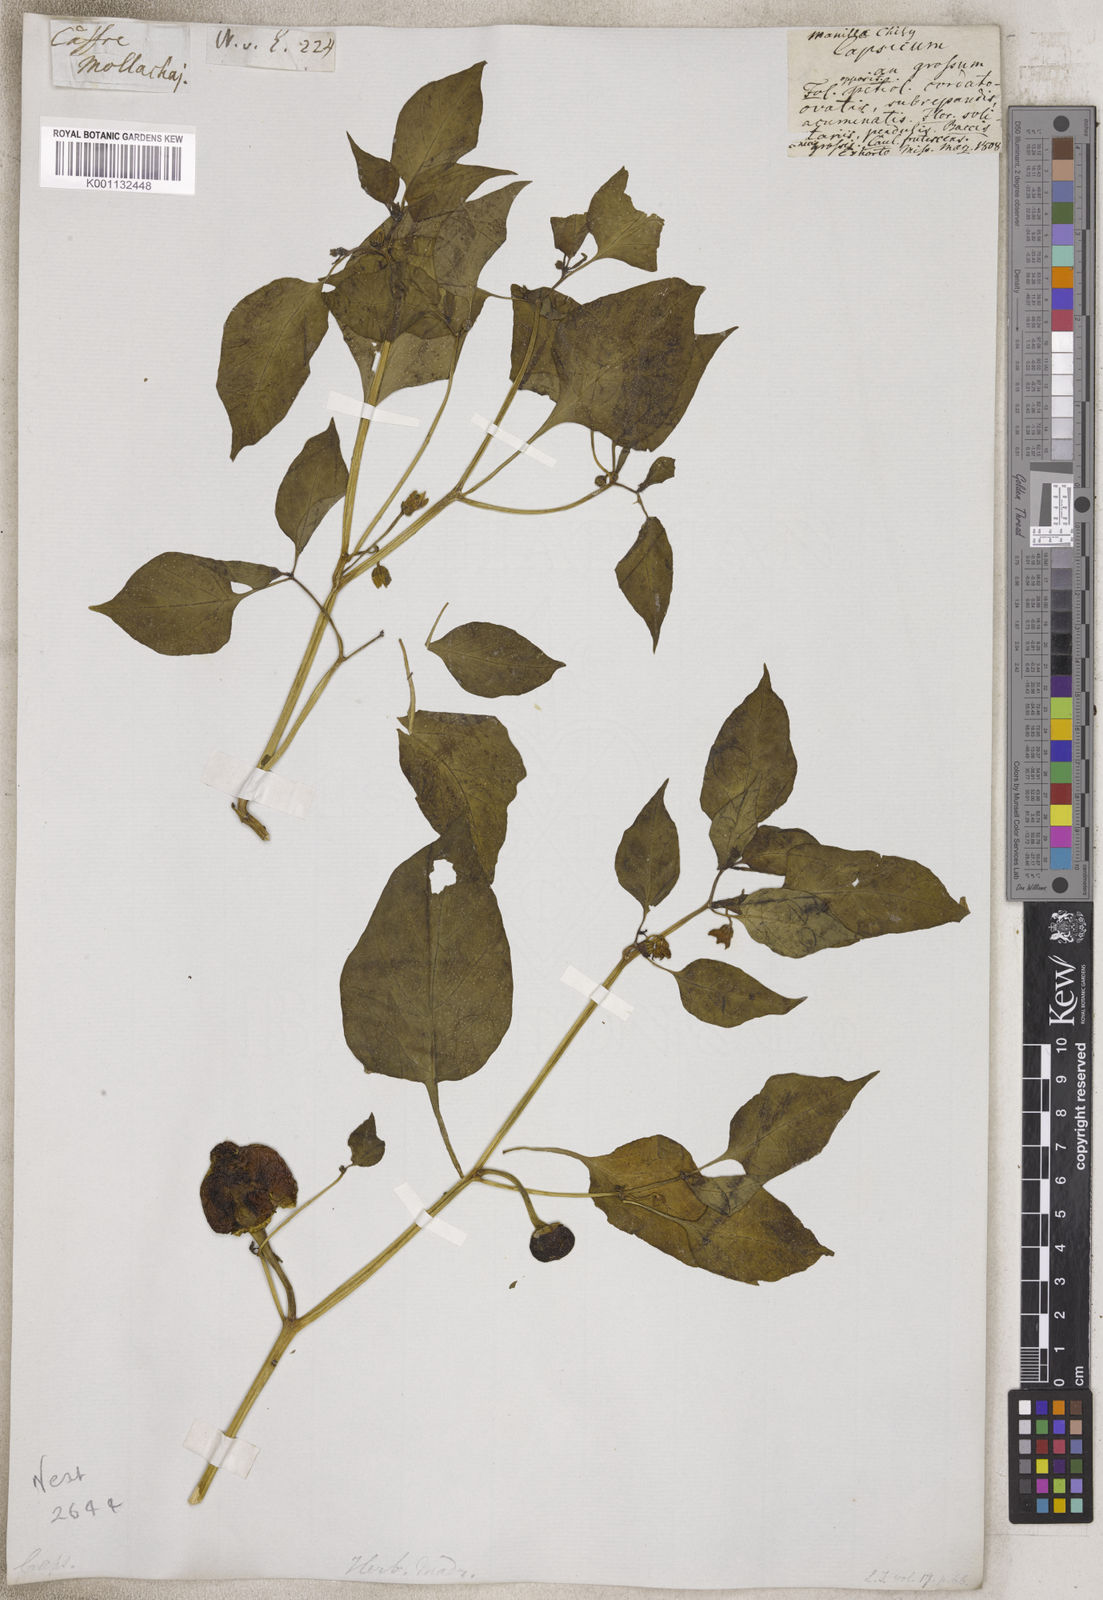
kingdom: Plantae
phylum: Tracheophyta
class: Magnoliopsida
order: Solanales
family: Solanaceae
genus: Capsicum
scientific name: Capsicum
